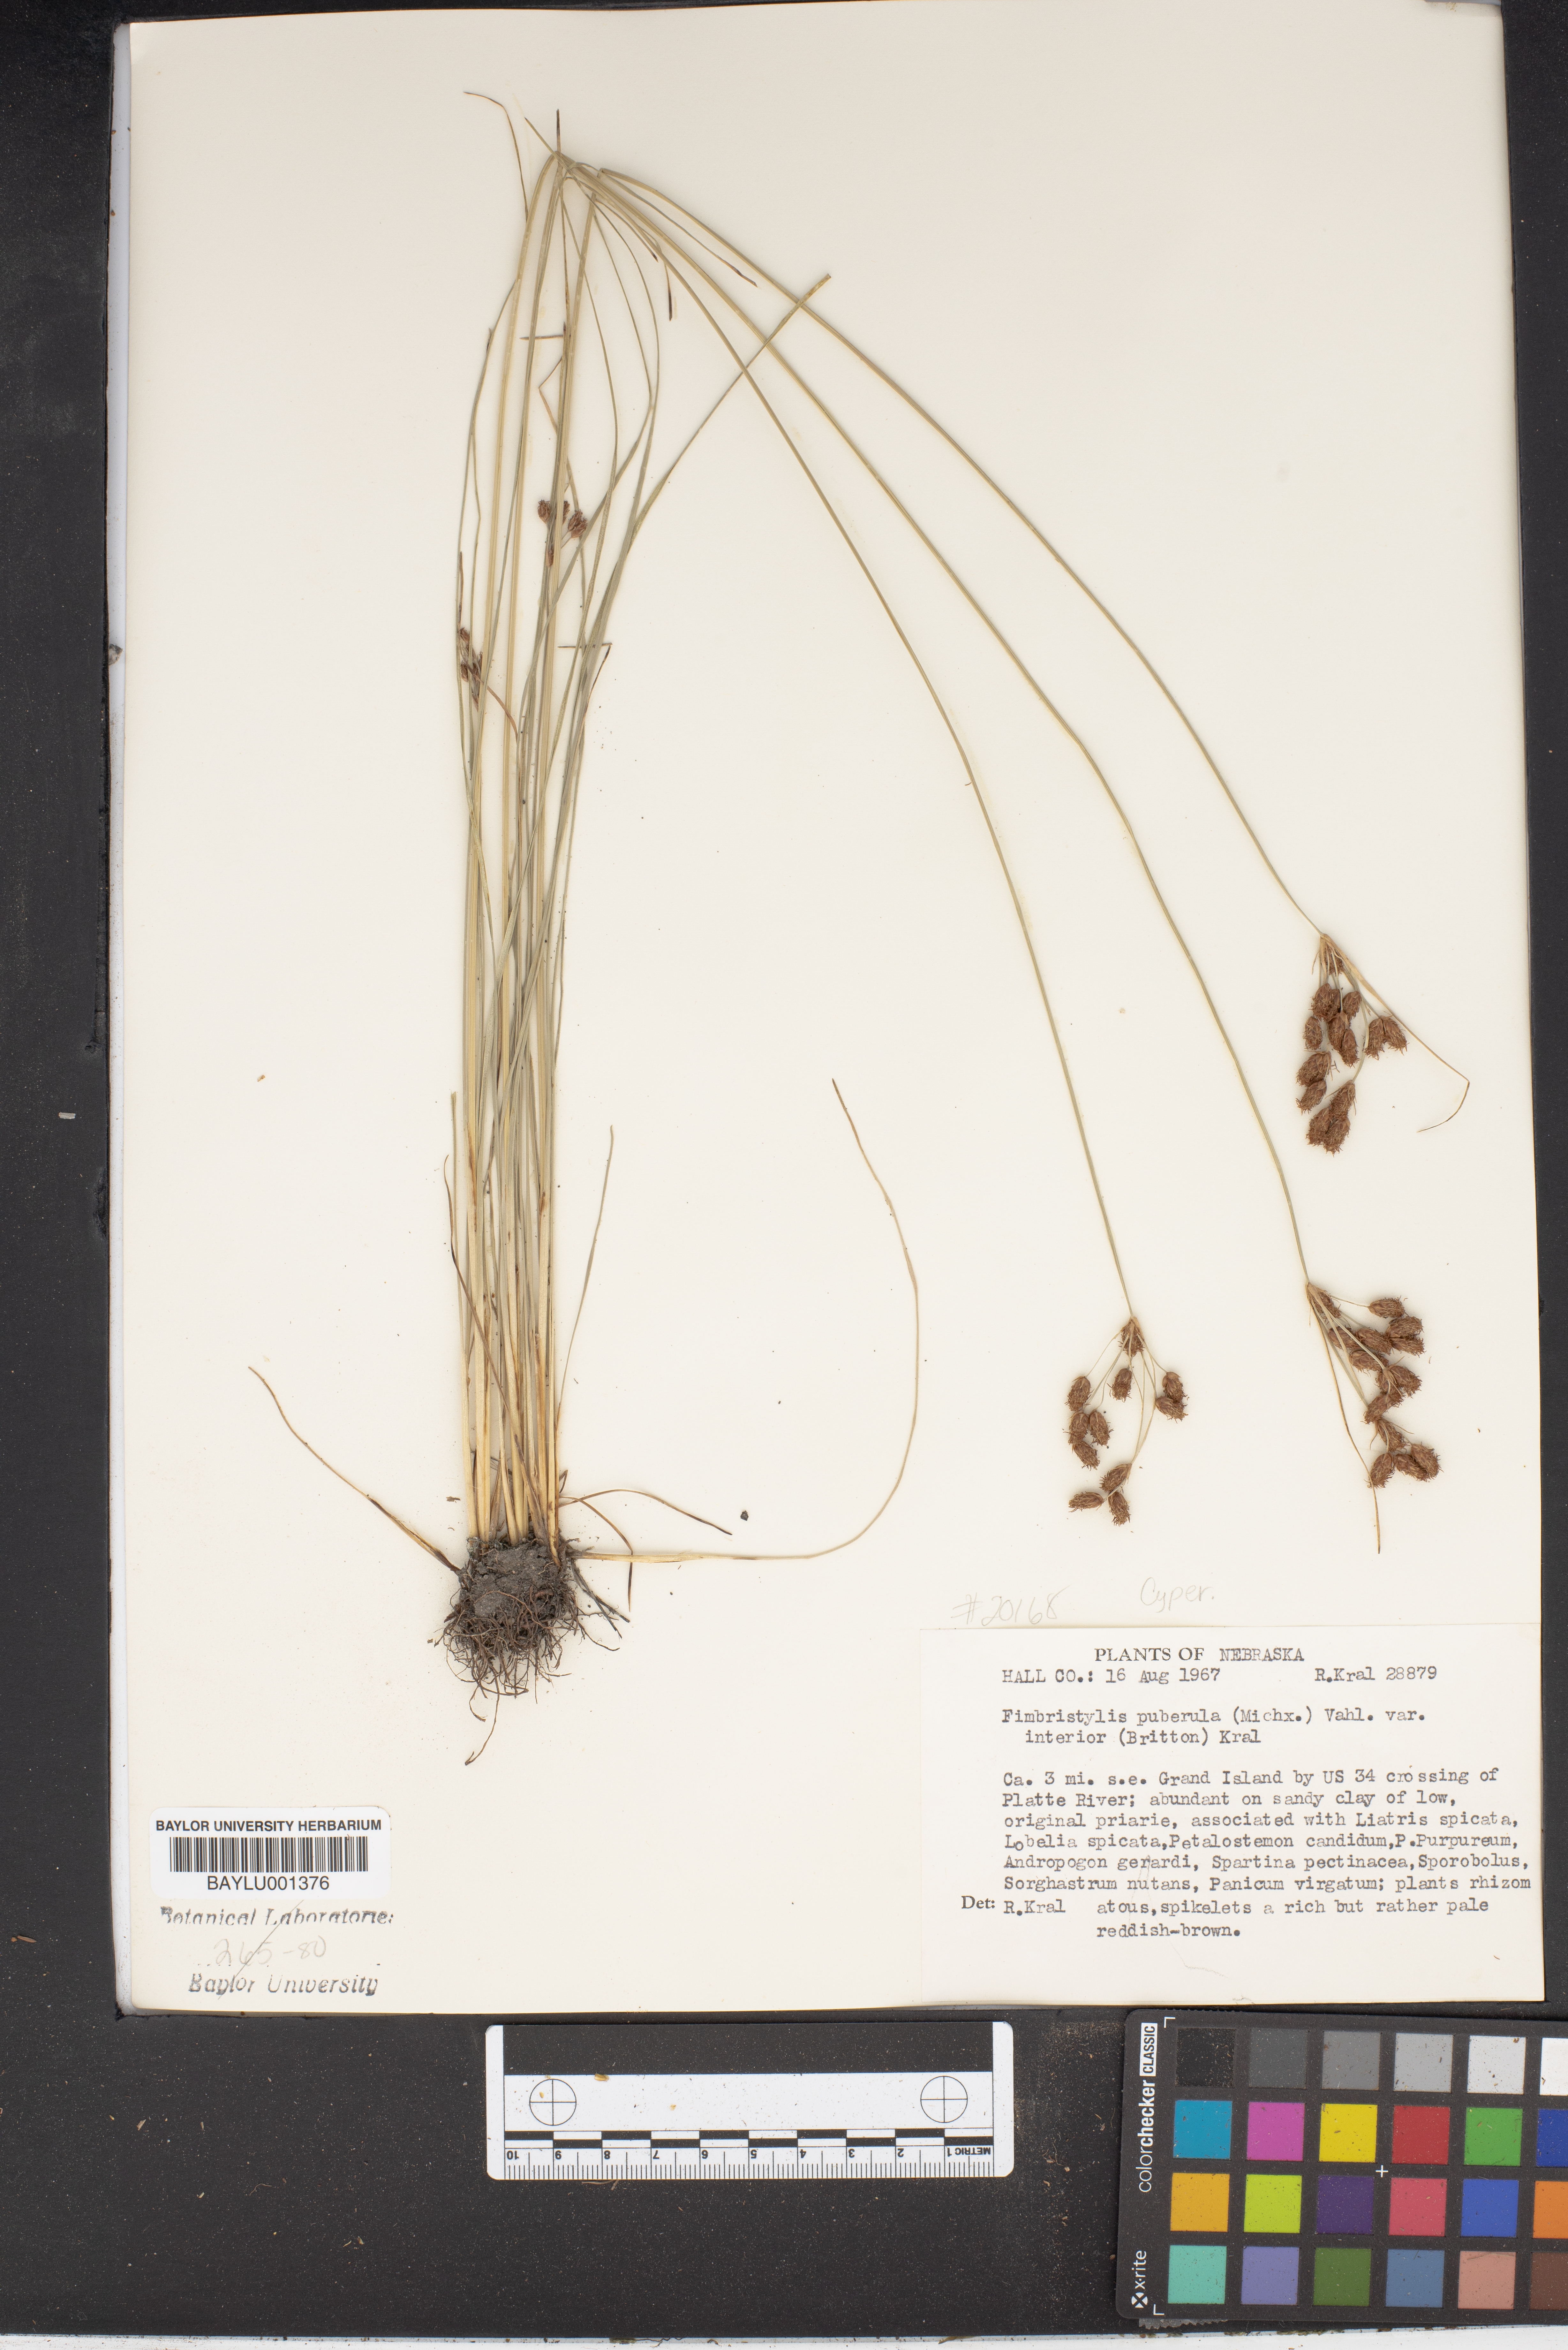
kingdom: Plantae
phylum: Tracheophyta
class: Liliopsida
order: Poales
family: Cyperaceae
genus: Fimbristylis
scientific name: Fimbristylis puberula
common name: Hairy fimbristylis
